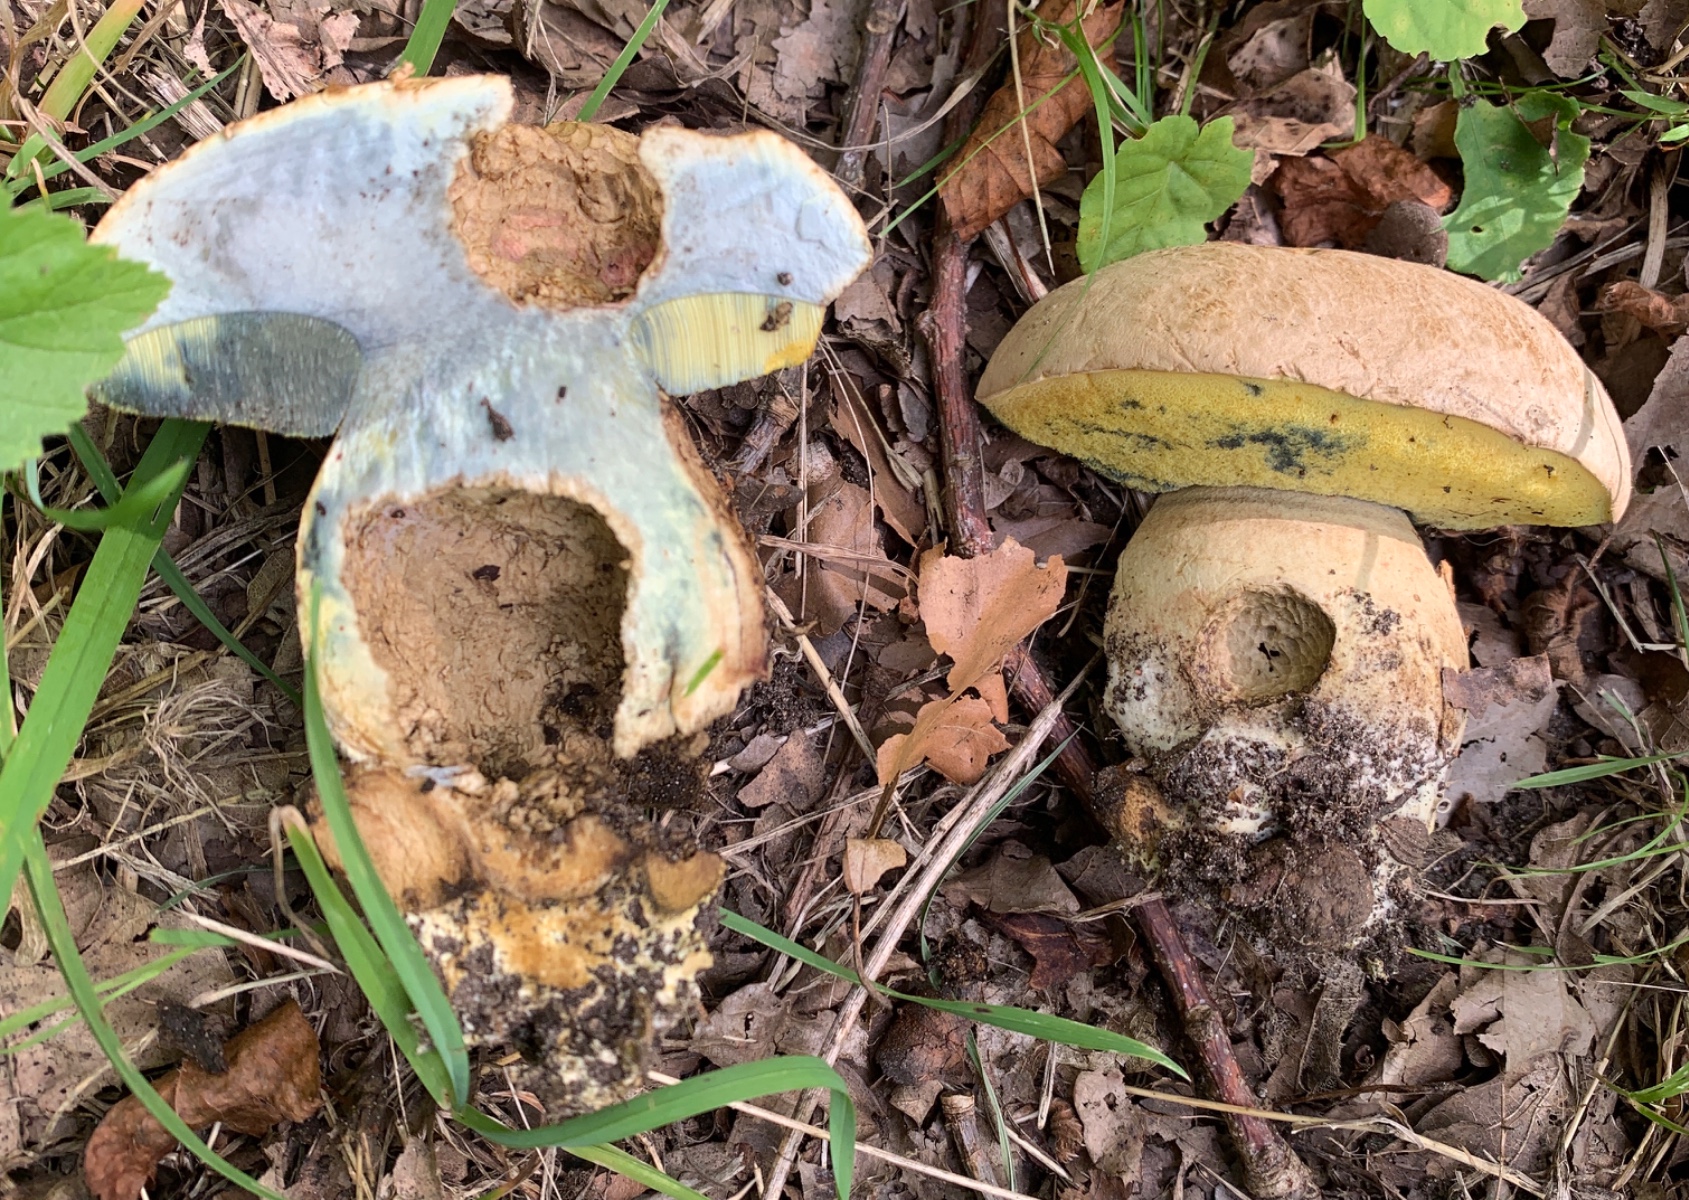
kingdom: Fungi
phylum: Basidiomycota
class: Agaricomycetes
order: Boletales
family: Boletaceae
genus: Caloboletus
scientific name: Caloboletus radicans
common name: rod-rørhat
